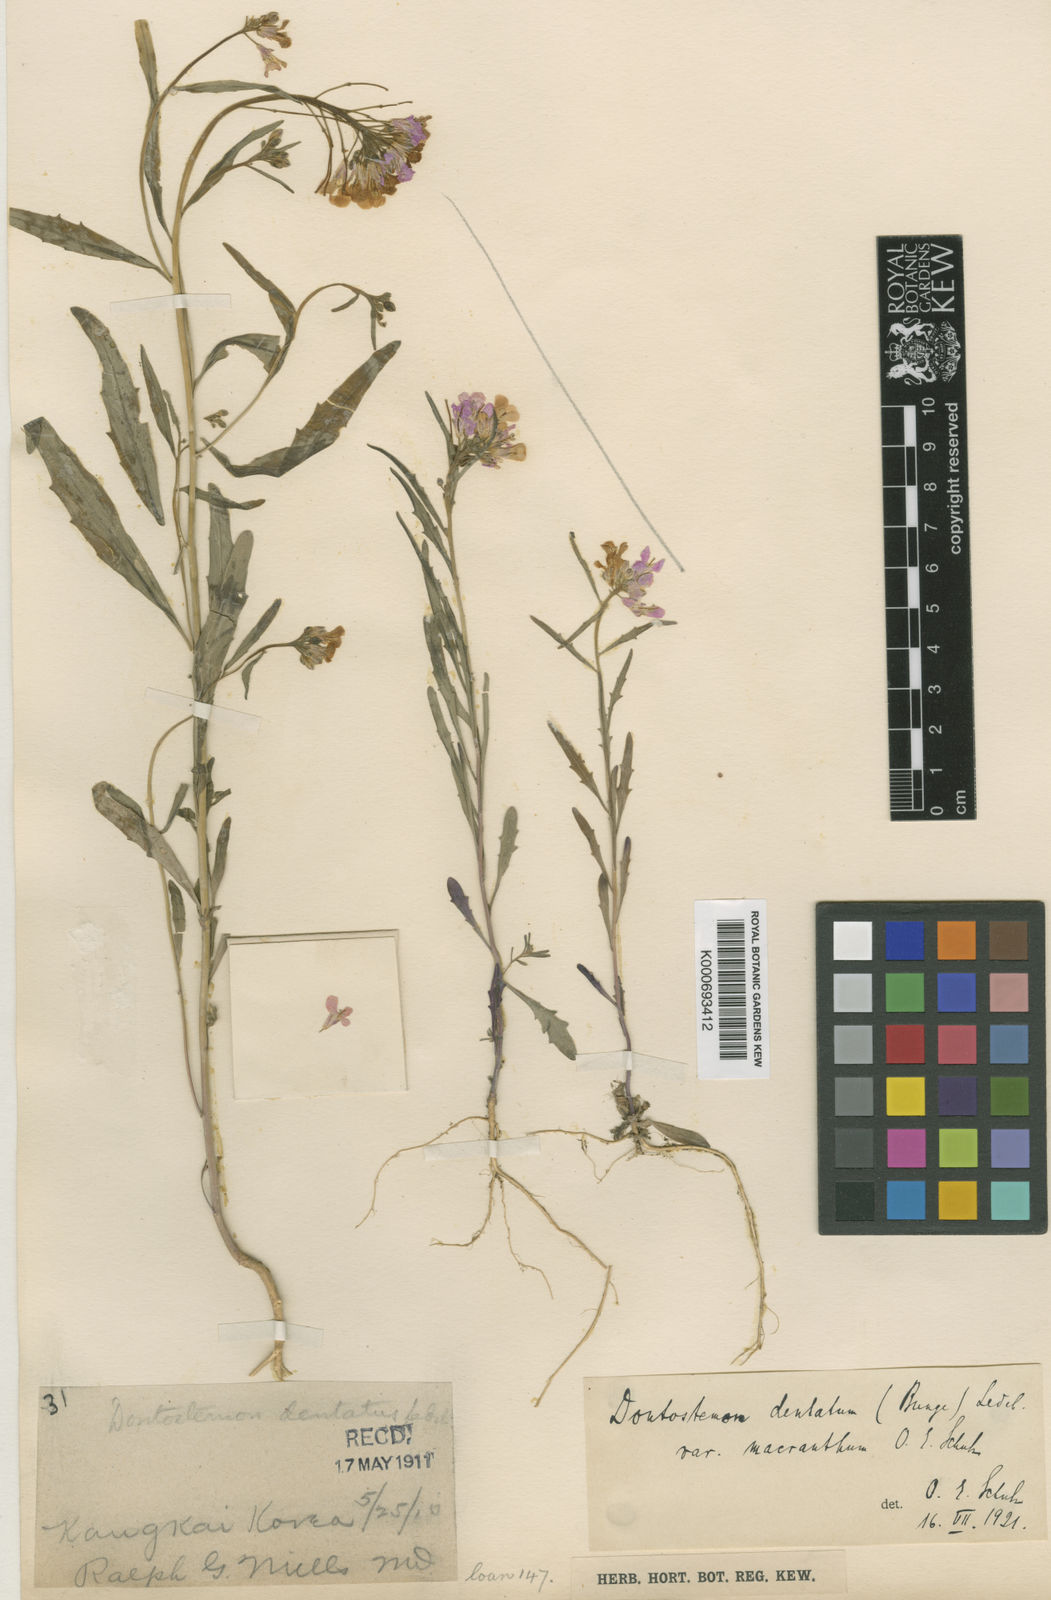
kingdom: Plantae
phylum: Tracheophyta
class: Magnoliopsida
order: Brassicales
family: Brassicaceae
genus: Dontostemon
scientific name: Dontostemon dentatus
